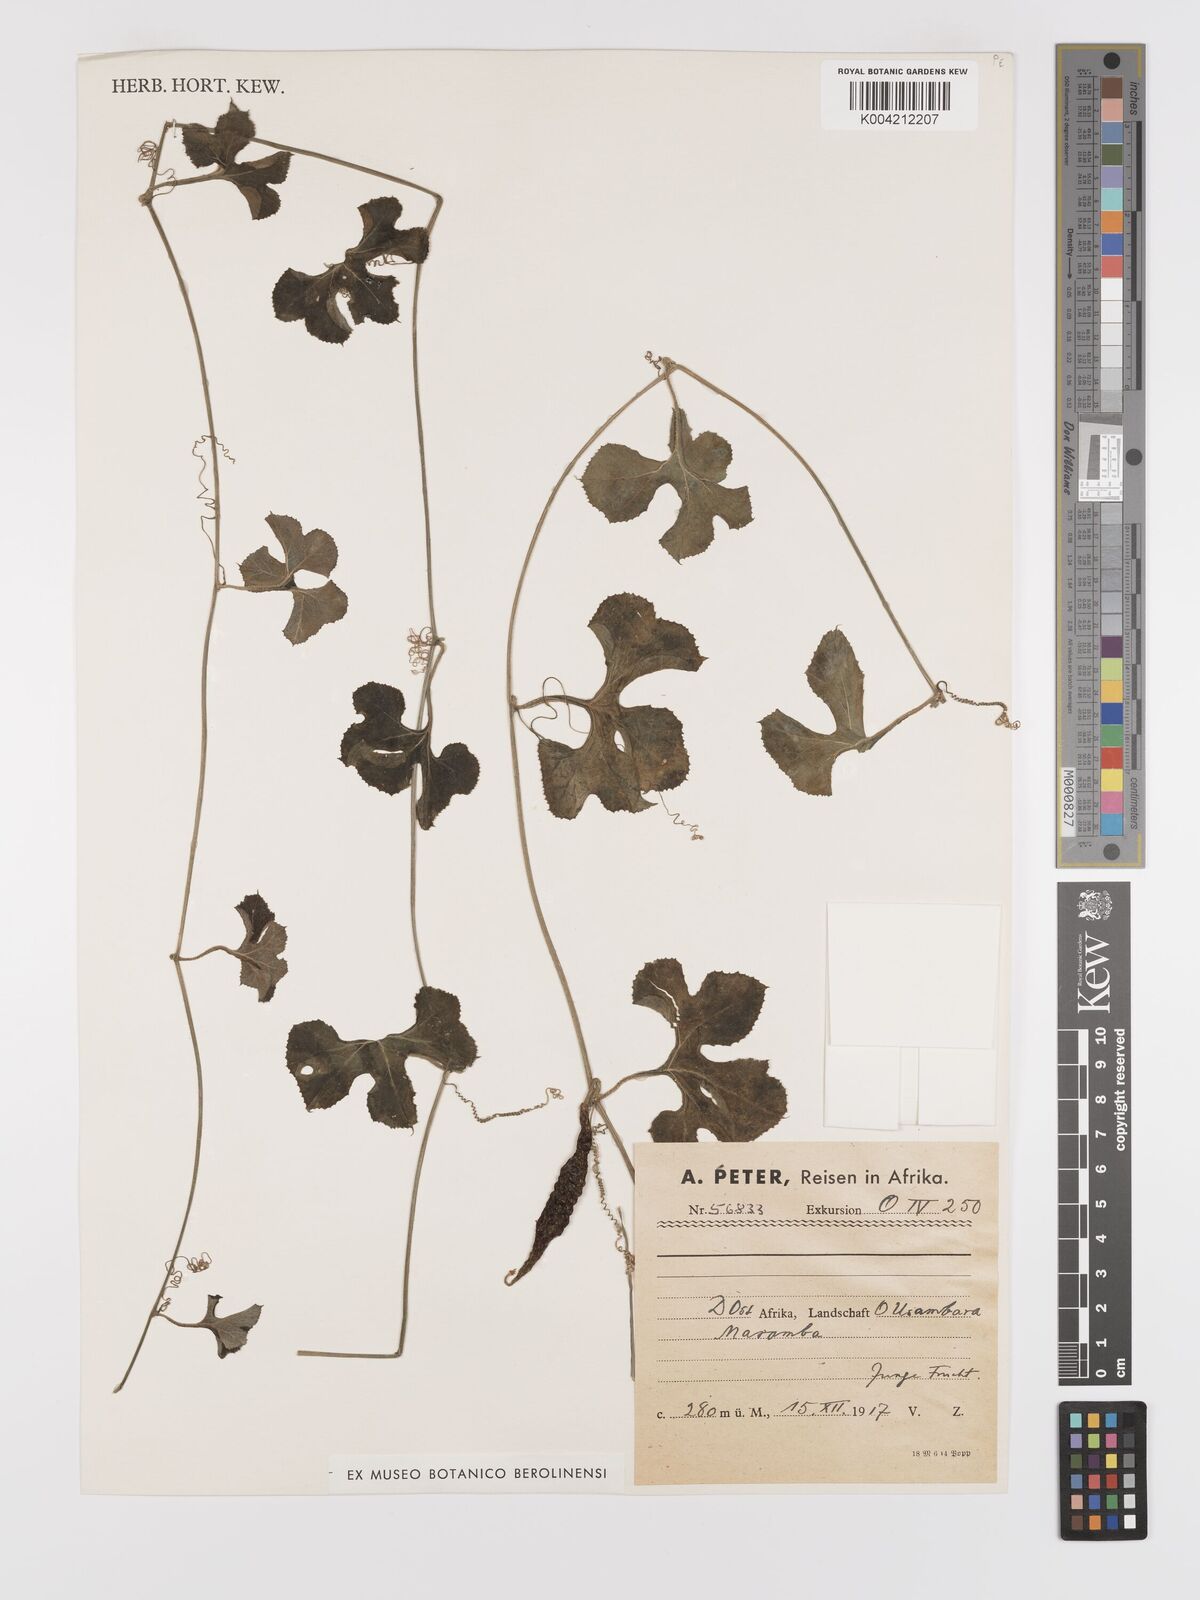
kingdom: Plantae
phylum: Tracheophyta
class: Magnoliopsida
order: Cucurbitales
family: Cucurbitaceae
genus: Kedrostis
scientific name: Kedrostis abdallae
